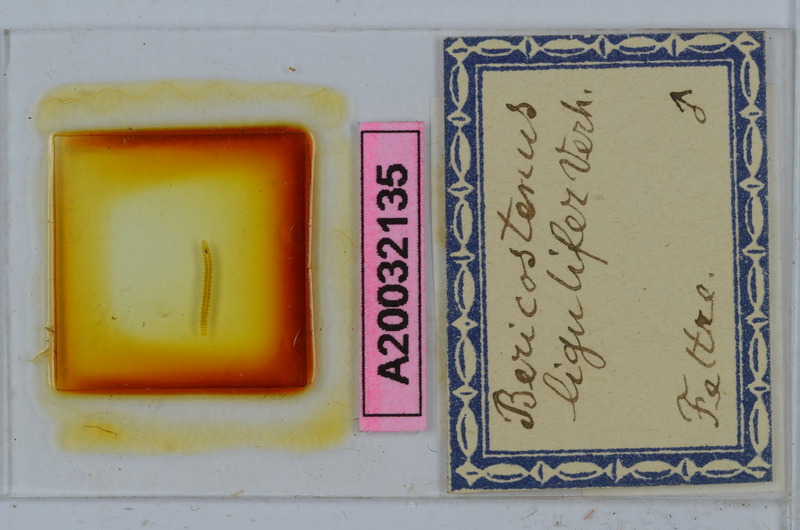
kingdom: Animalia
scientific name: Animalia
